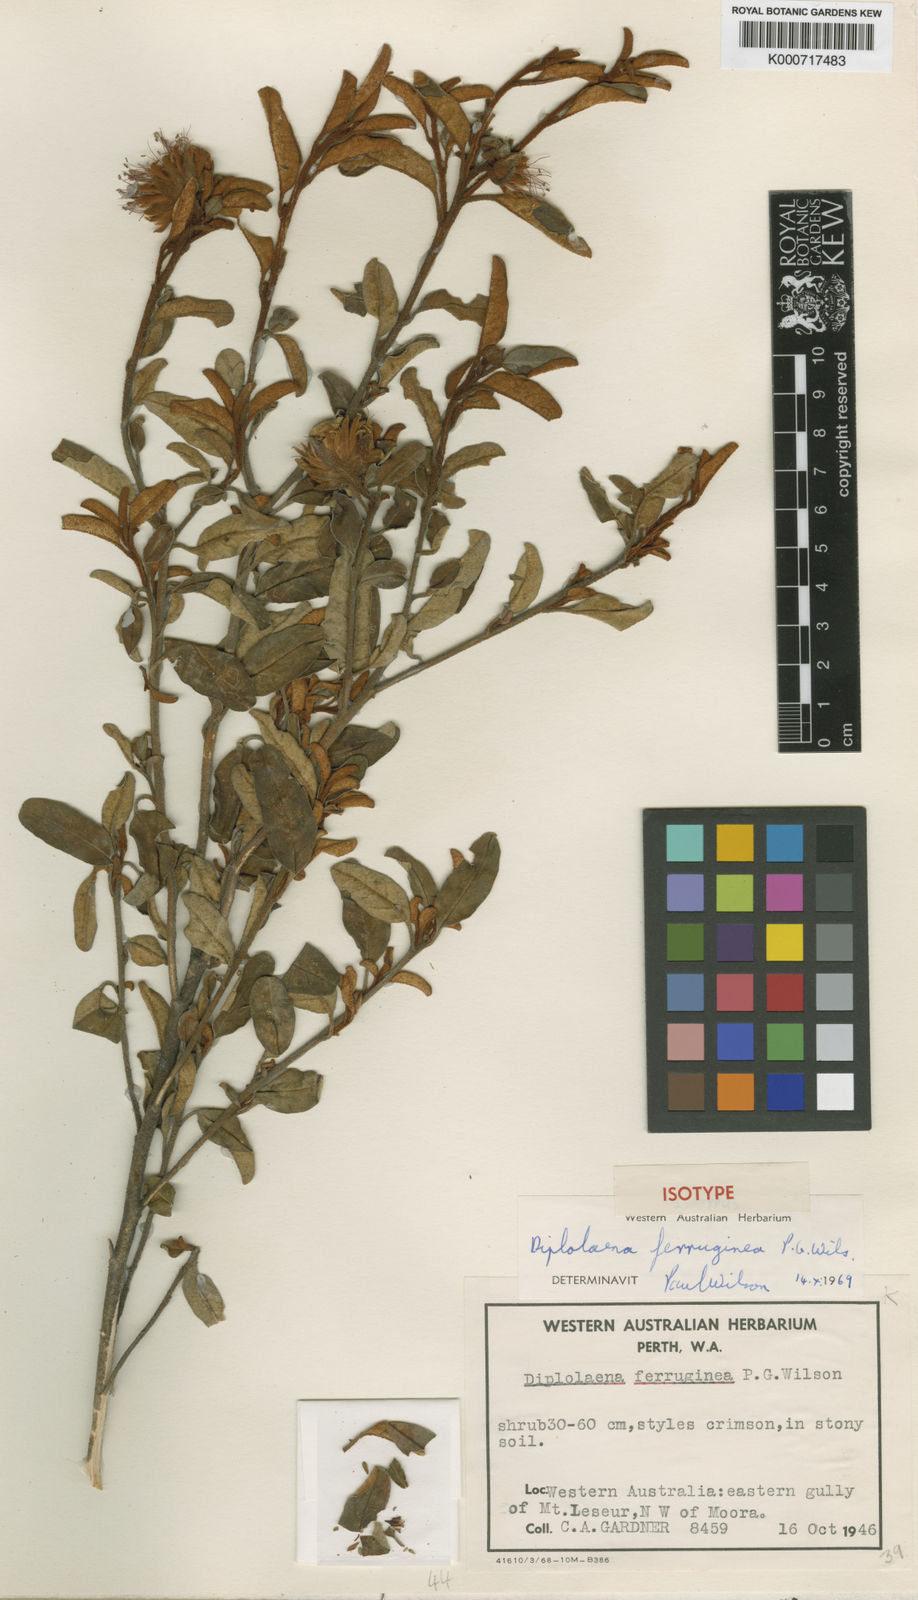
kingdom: Plantae
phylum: Tracheophyta
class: Magnoliopsida
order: Sapindales
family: Rutaceae
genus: Diplolaena
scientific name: Diplolaena ferruginea
